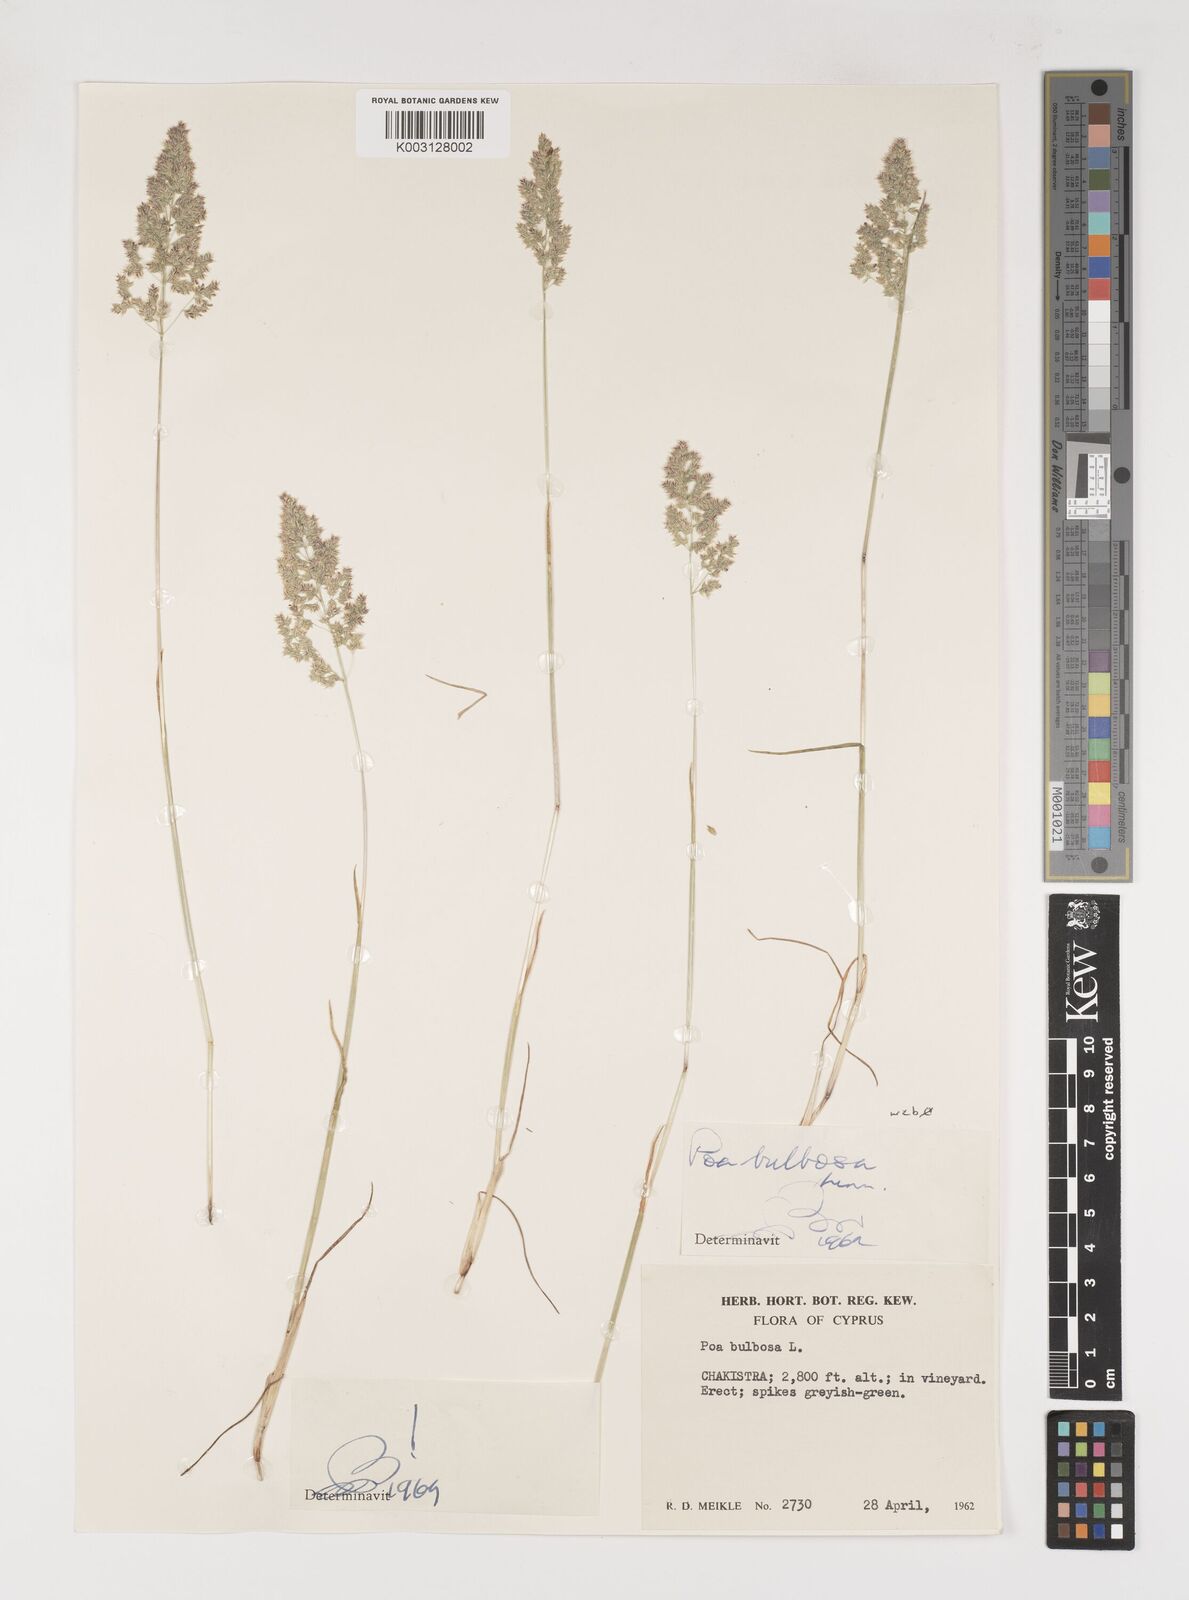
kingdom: Plantae
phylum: Tracheophyta
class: Liliopsida
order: Poales
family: Poaceae
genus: Poa
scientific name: Poa bulbosa
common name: Bulbous bluegrass
